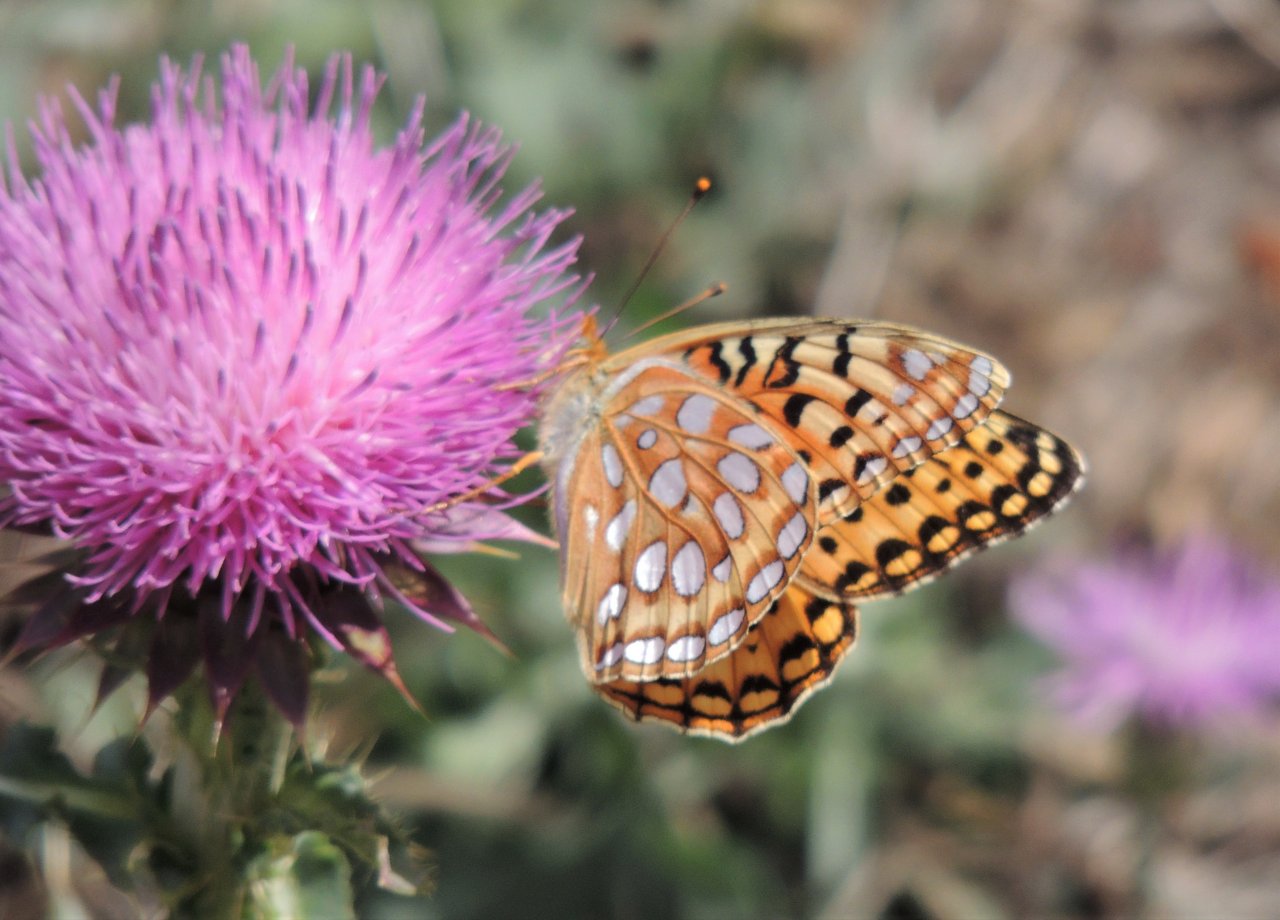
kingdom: Animalia
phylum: Arthropoda
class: Insecta
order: Lepidoptera
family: Nymphalidae
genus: Speyeria
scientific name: Speyeria zerene
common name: Zerene Fritillary
